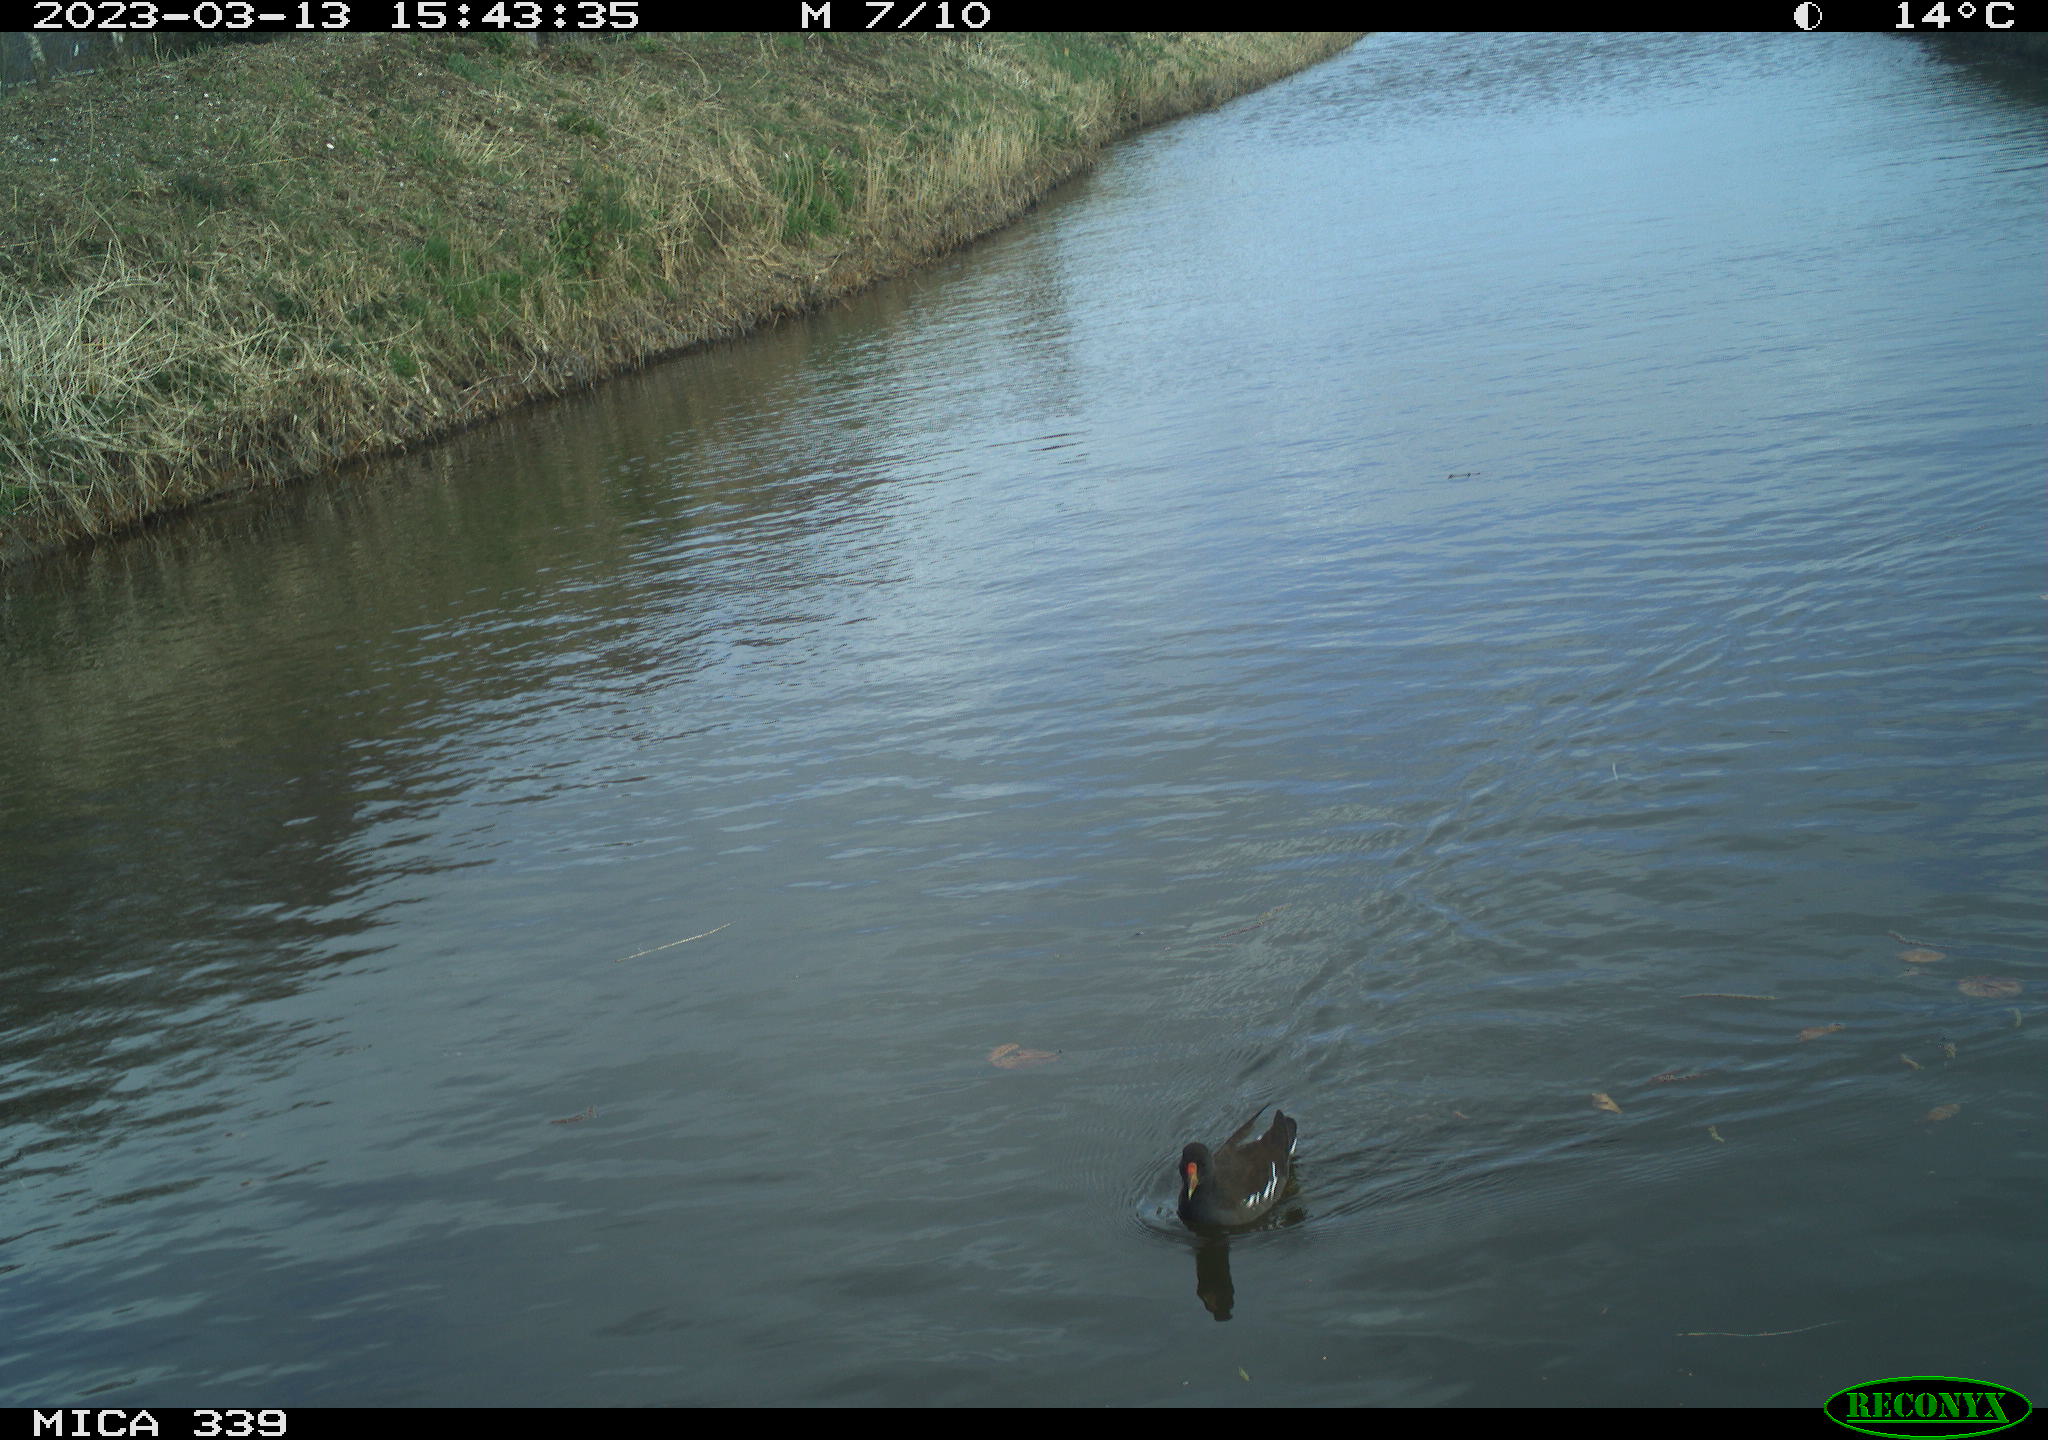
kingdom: Animalia
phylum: Chordata
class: Aves
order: Gruiformes
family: Rallidae
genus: Gallinula
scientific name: Gallinula chloropus
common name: Common moorhen
